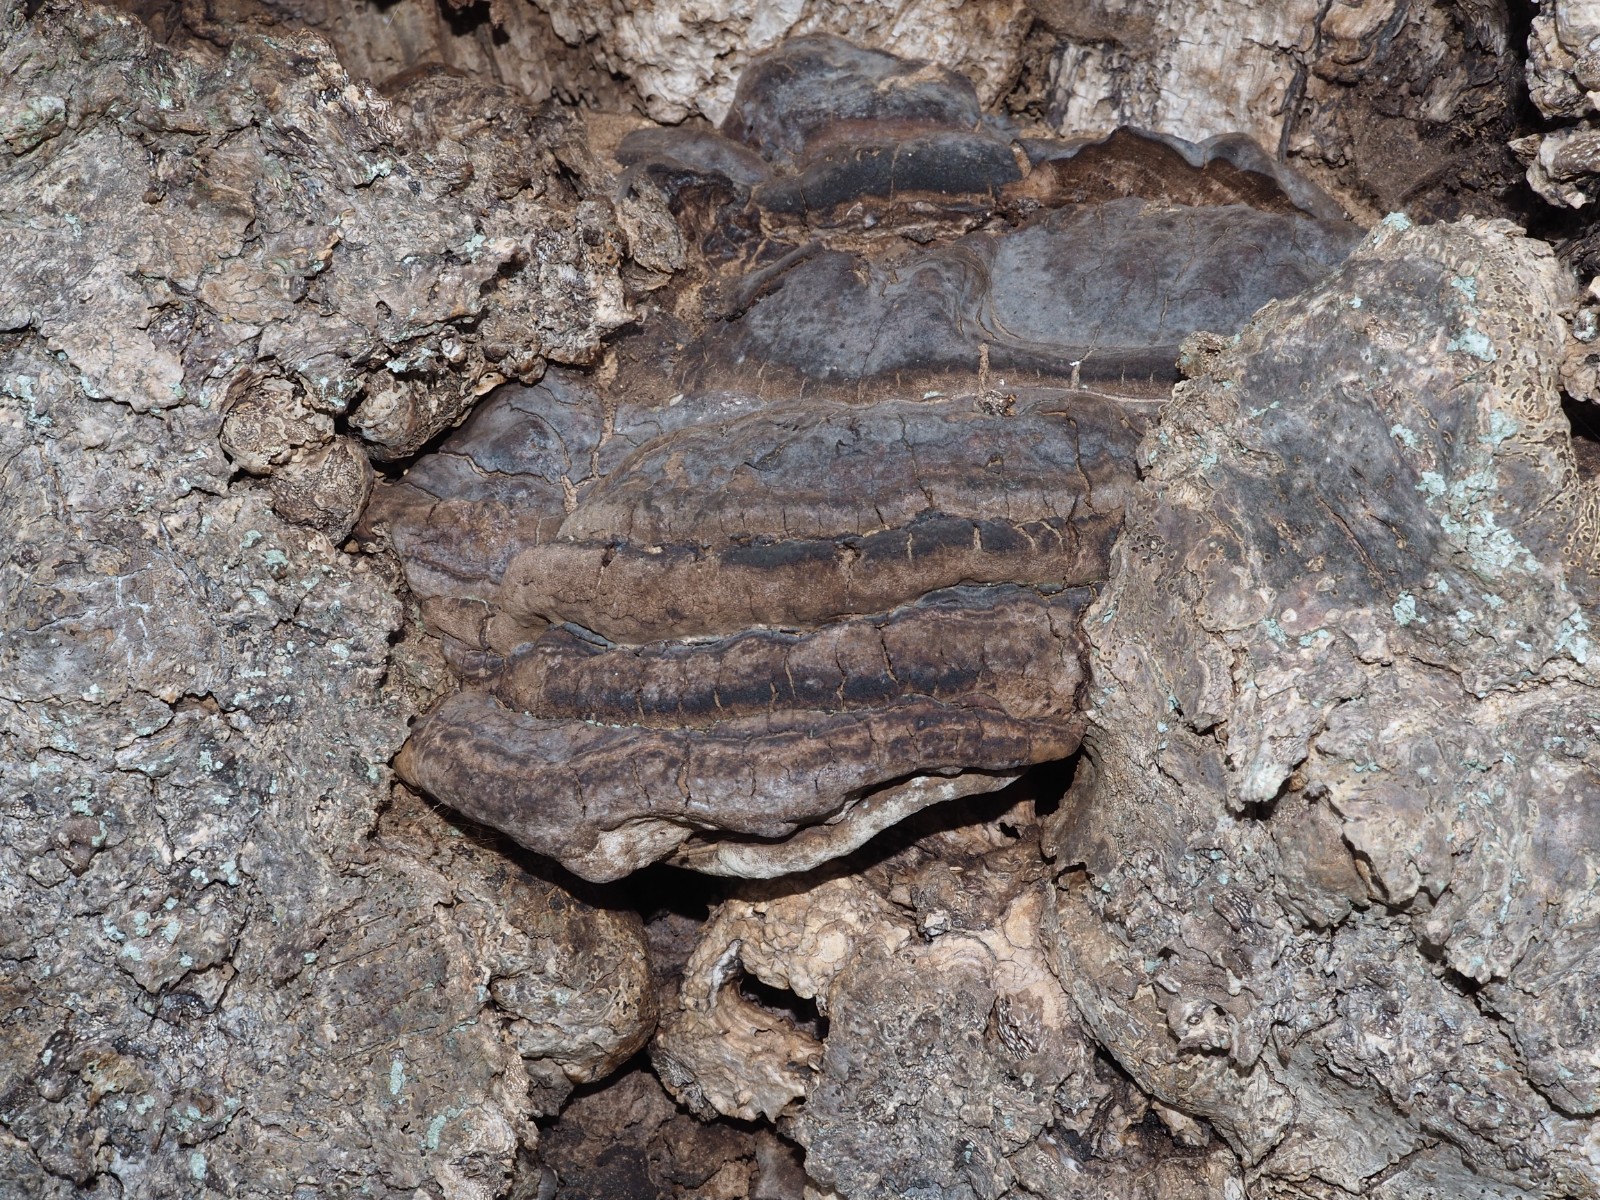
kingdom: Fungi
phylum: Basidiomycota
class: Agaricomycetes
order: Polyporales
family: Polyporaceae
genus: Ganoderma
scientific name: Ganoderma adspersum
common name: grov lakporesvamp
